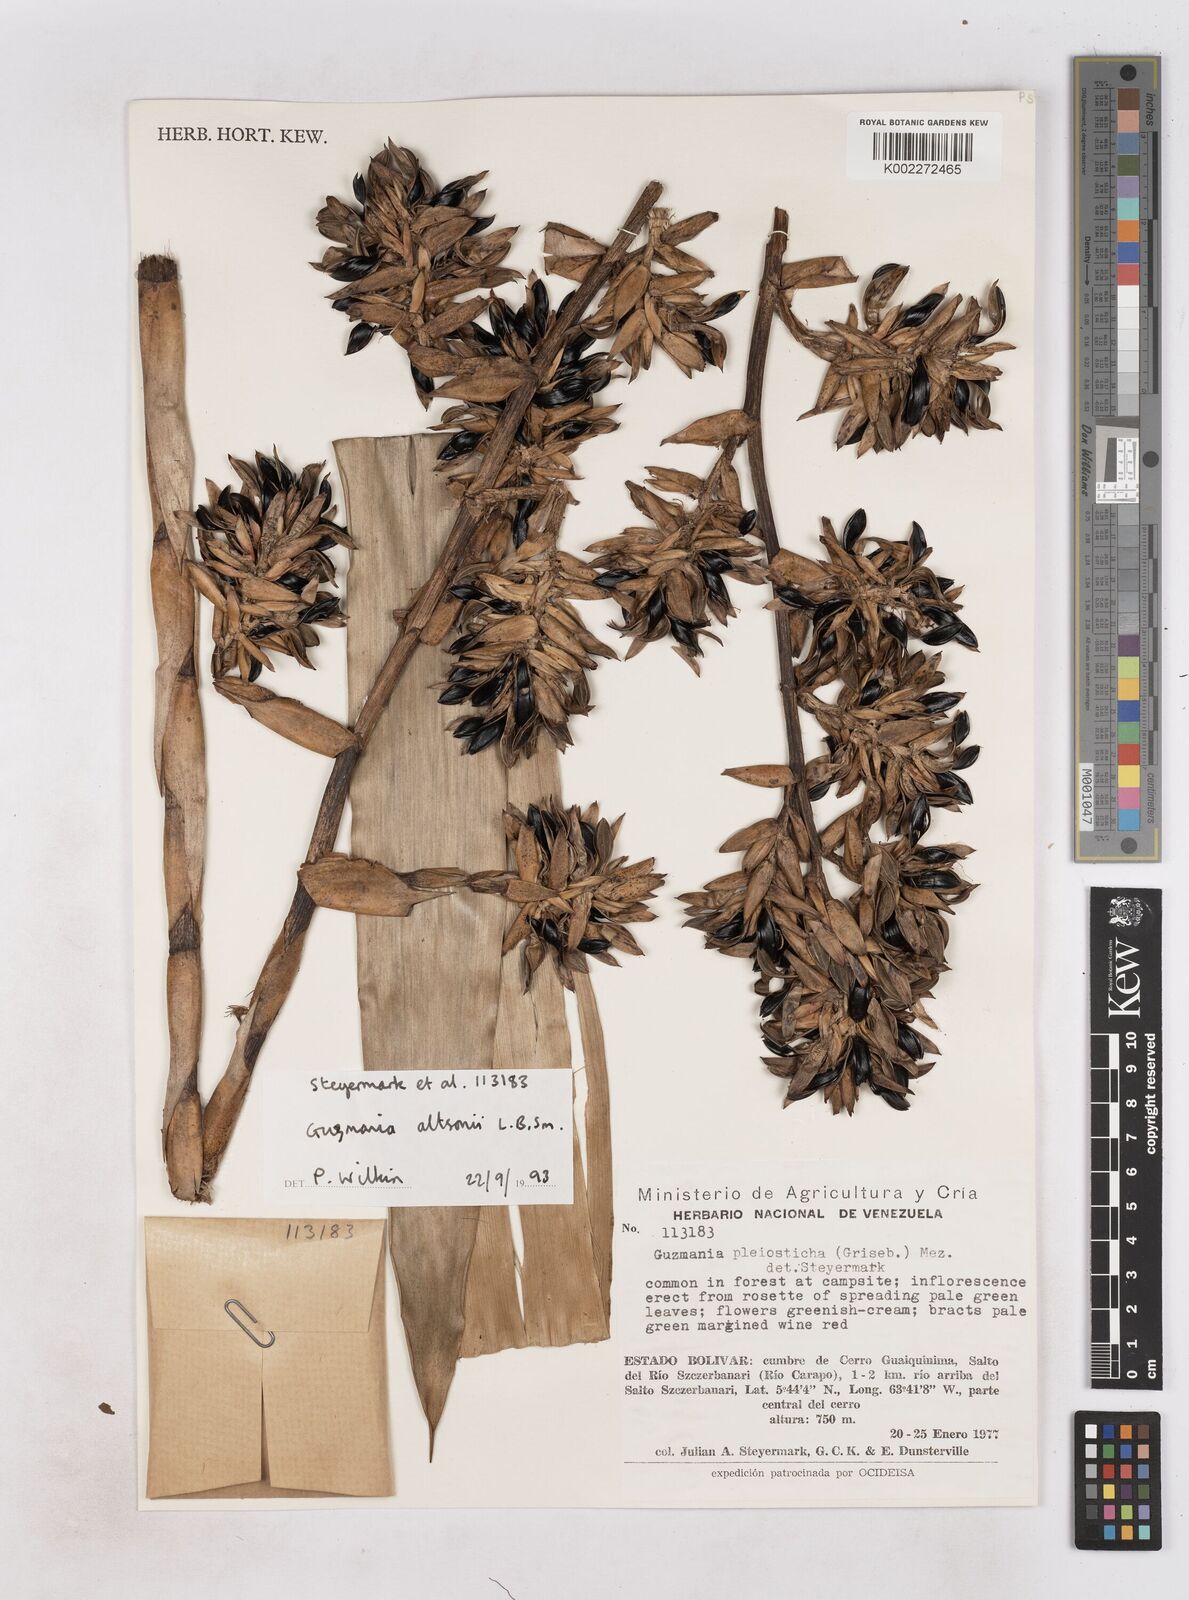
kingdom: Plantae
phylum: Tracheophyta
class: Liliopsida
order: Poales
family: Bromeliaceae
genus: Guzmania
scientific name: Guzmania altsonii
